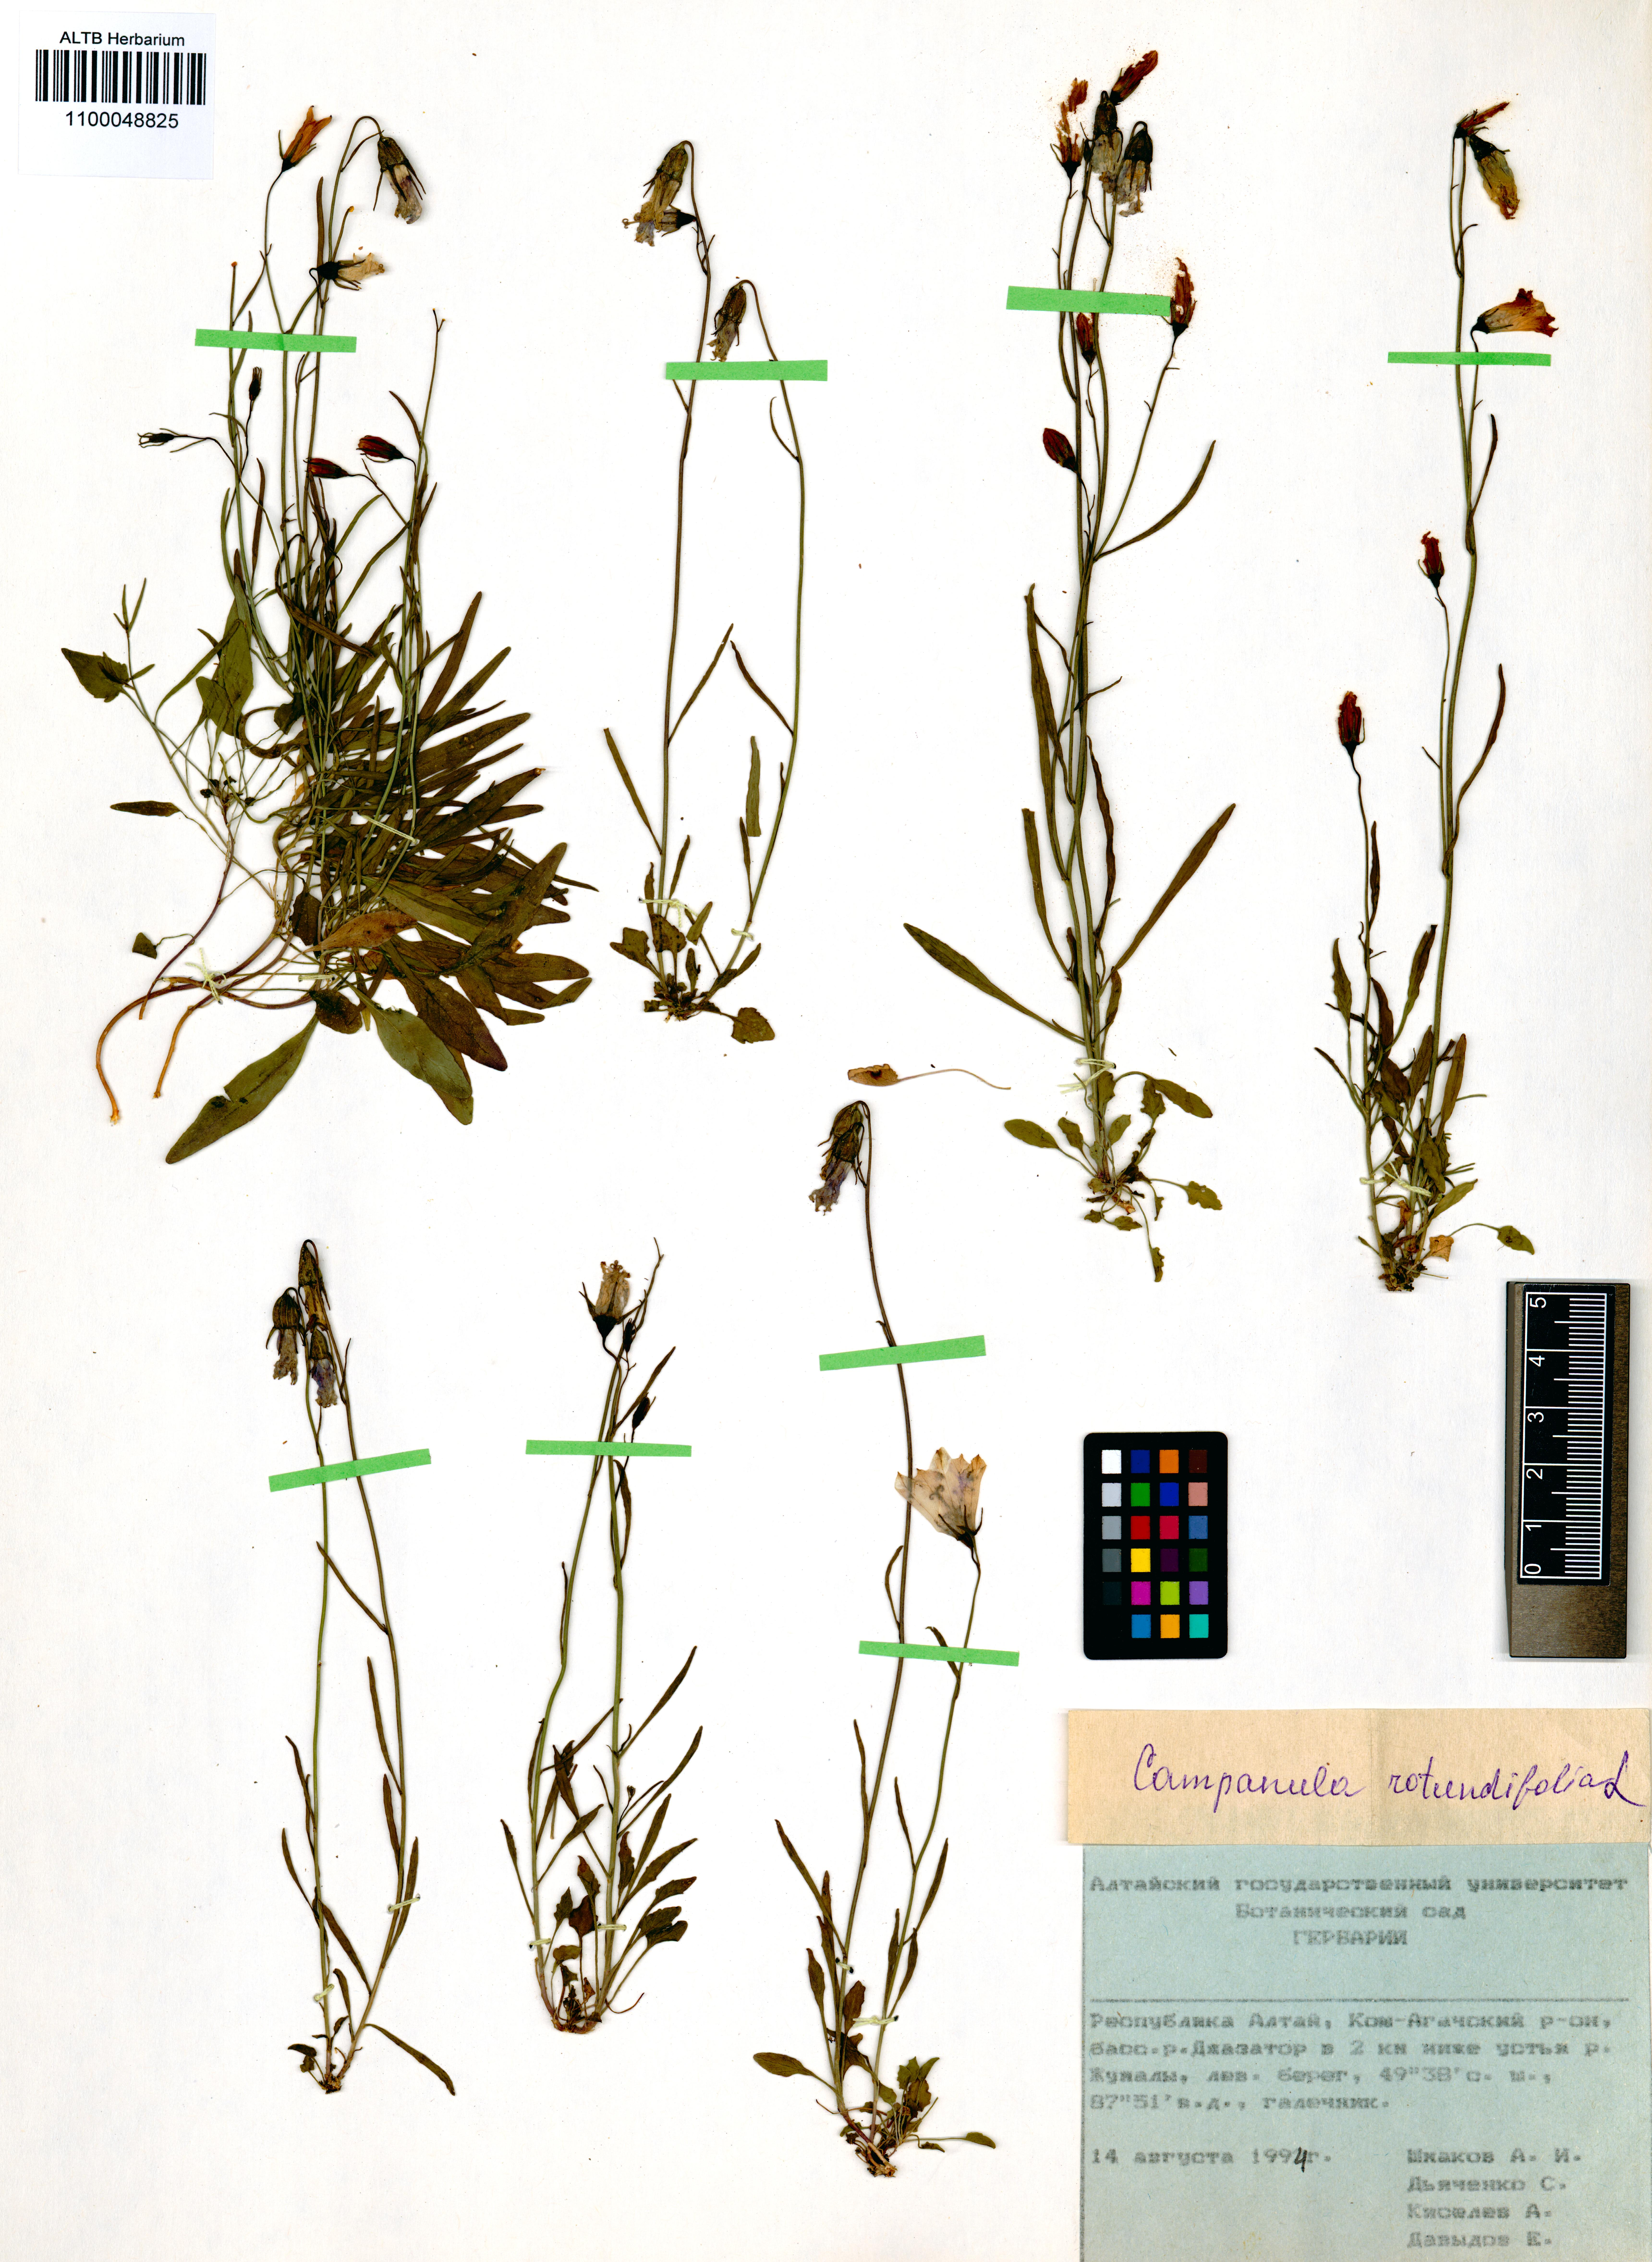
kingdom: Plantae
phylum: Tracheophyta
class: Magnoliopsida
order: Asterales
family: Campanulaceae
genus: Campanula
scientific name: Campanula rotundifolia
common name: Harebell
